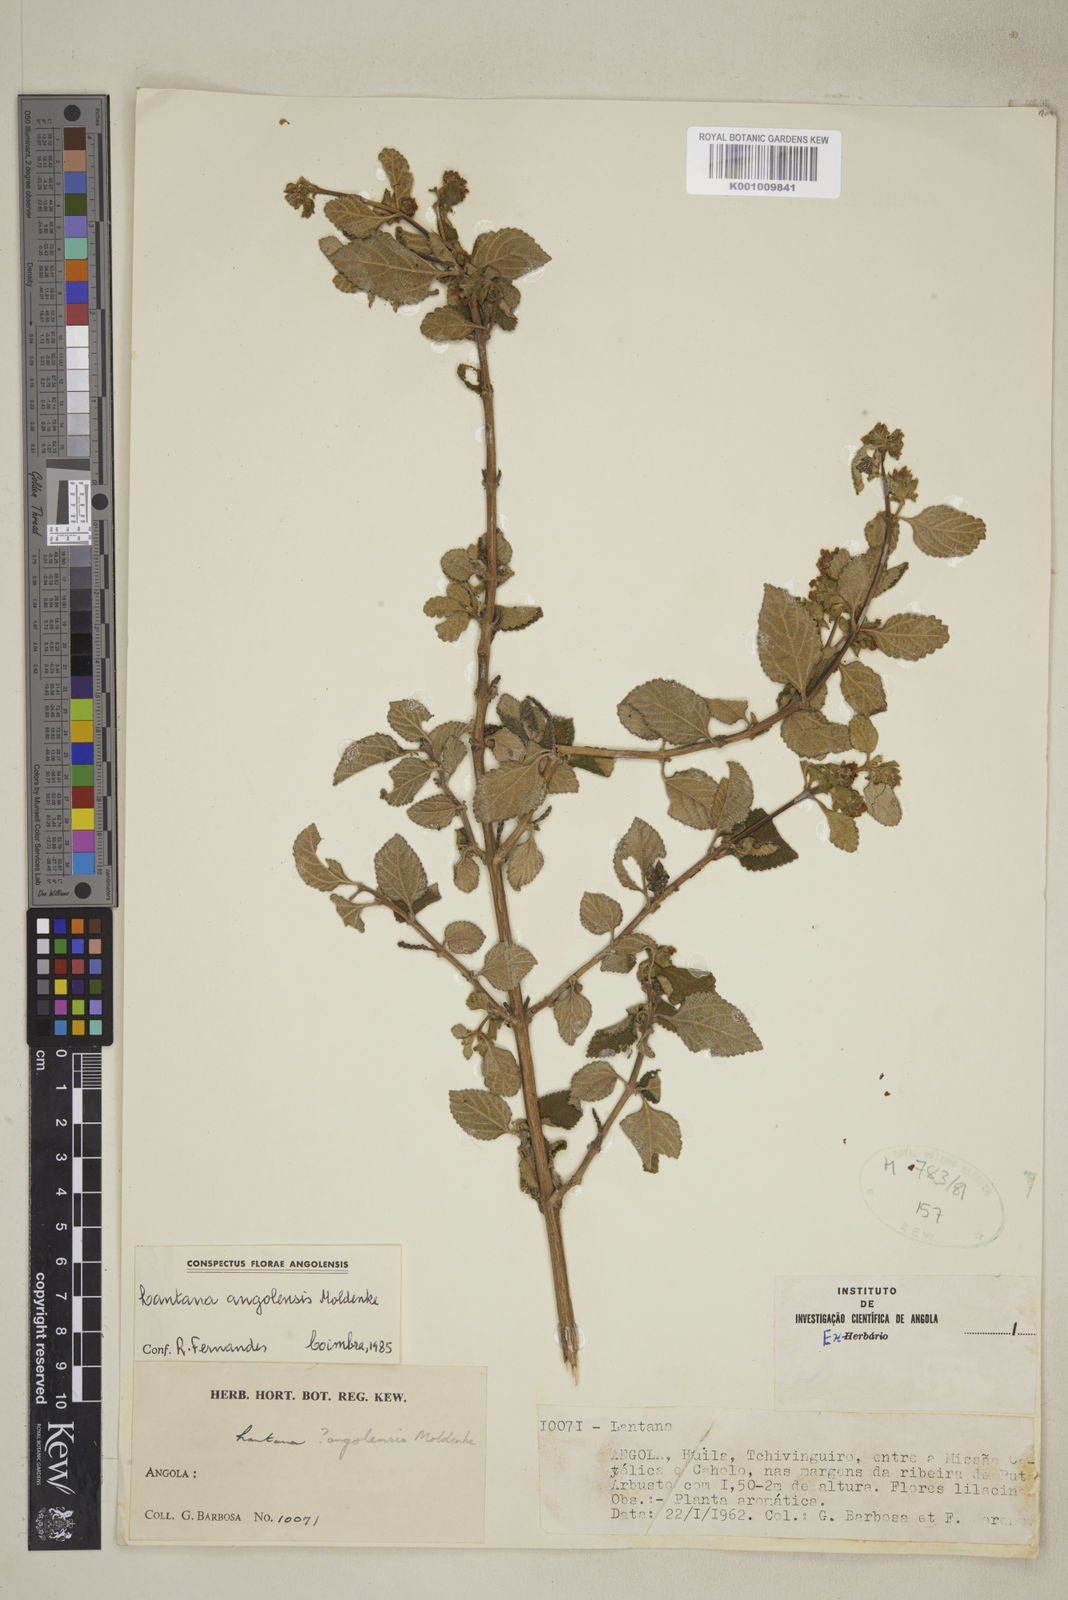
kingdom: Plantae
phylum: Tracheophyta
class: Magnoliopsida
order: Lamiales
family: Verbenaceae
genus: Lantana
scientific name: Lantana angolensis
